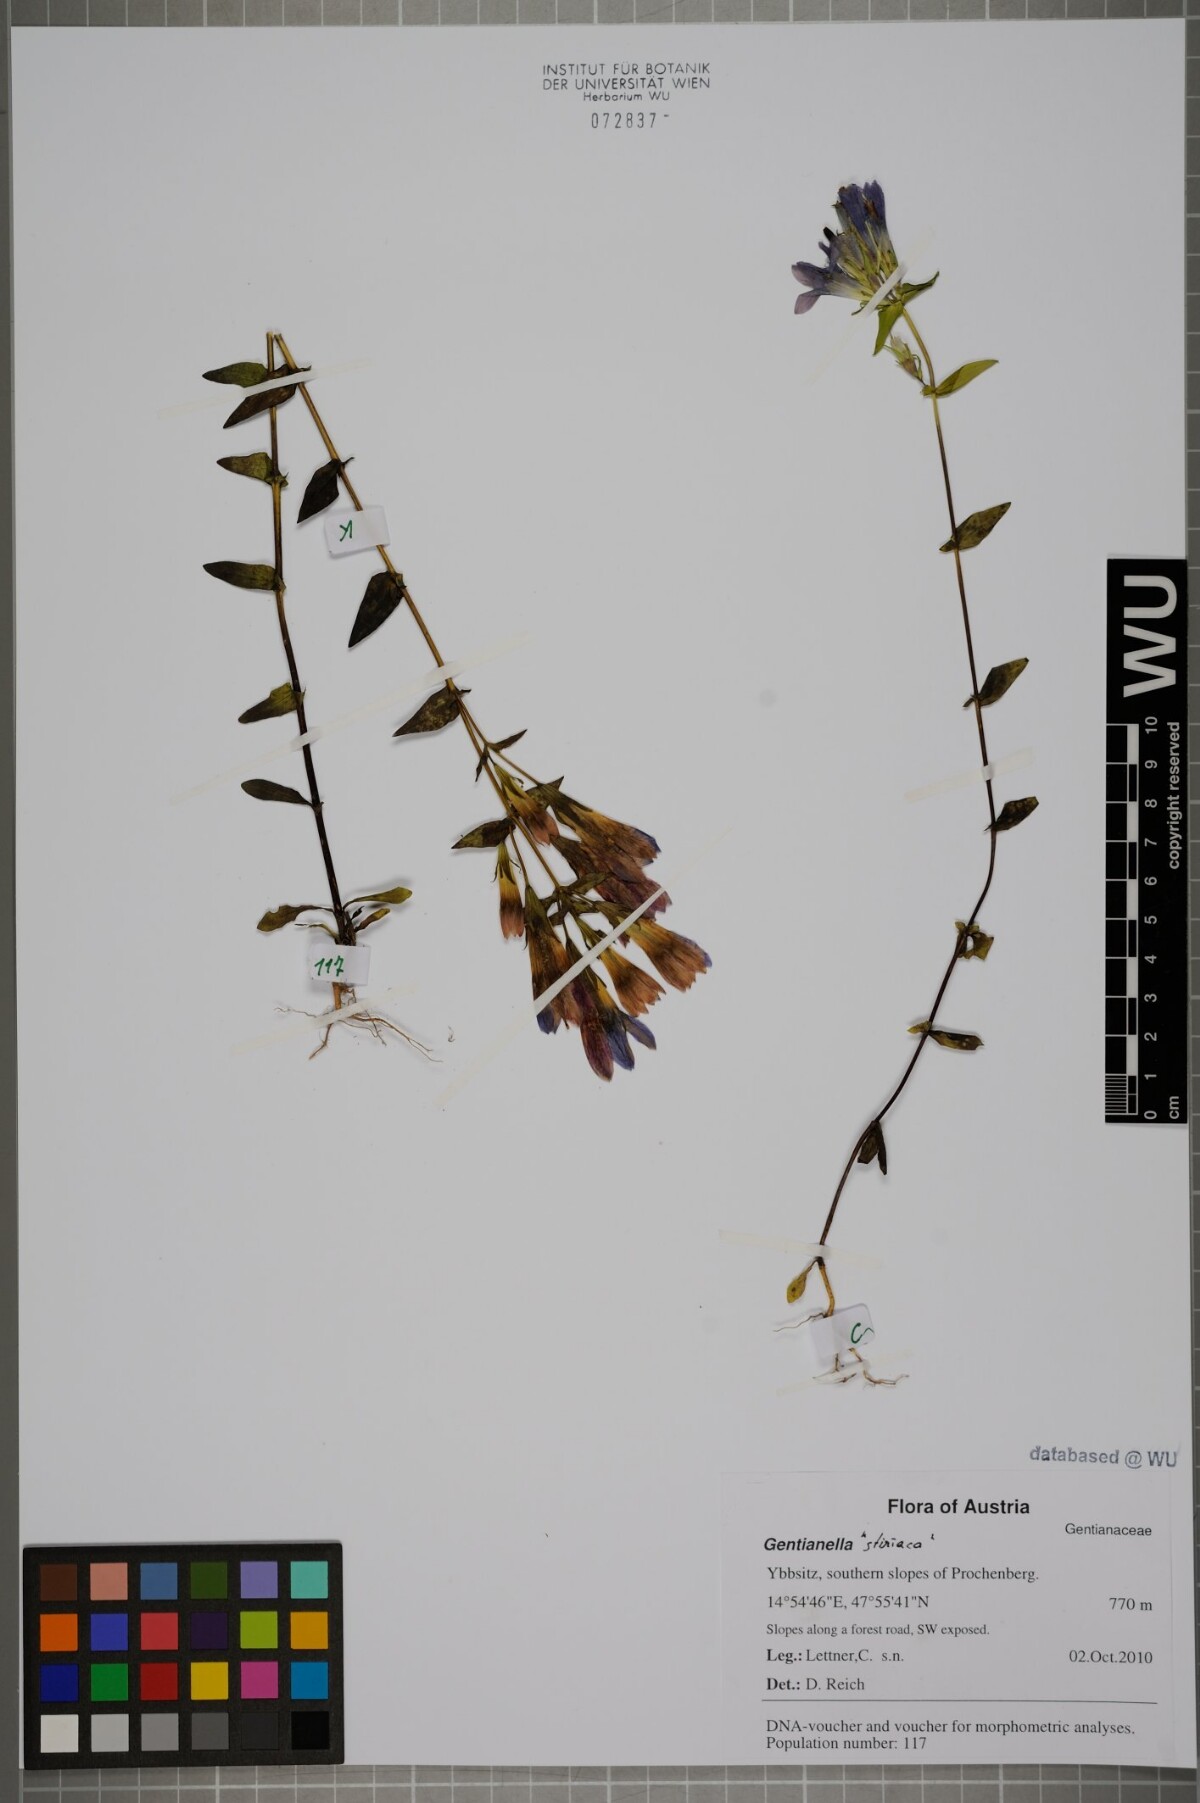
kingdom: Plantae
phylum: Tracheophyta
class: Magnoliopsida
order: Gentianales
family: Gentianaceae
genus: Gentianella
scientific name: Gentianella
